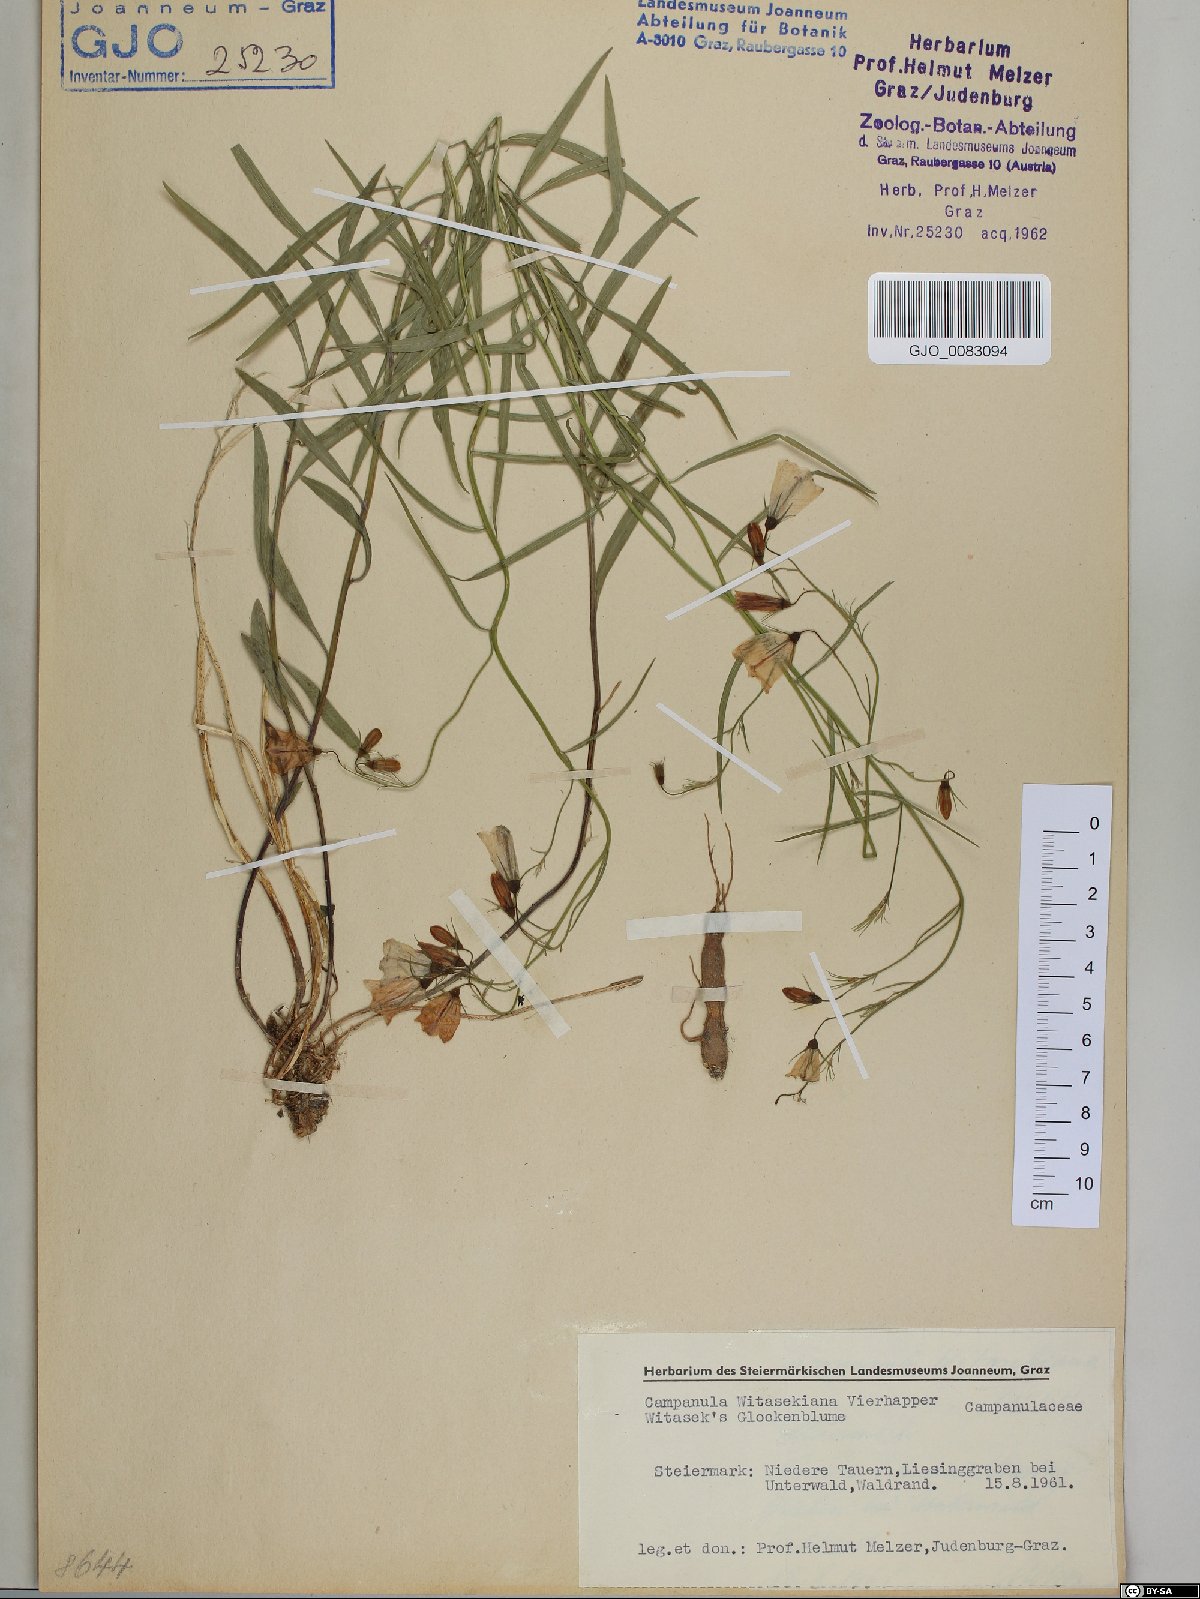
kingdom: Plantae
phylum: Tracheophyta
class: Magnoliopsida
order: Asterales
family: Campanulaceae
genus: Campanula
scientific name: Campanula witasekiana
